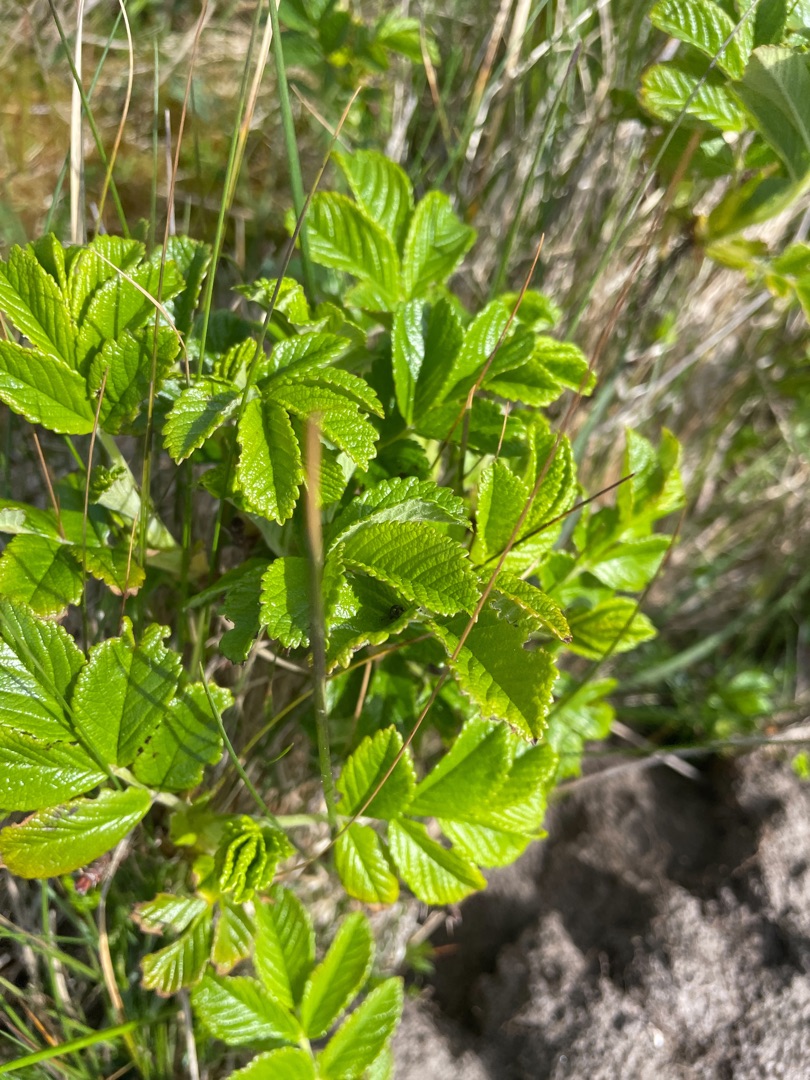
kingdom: Plantae
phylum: Tracheophyta
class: Magnoliopsida
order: Rosales
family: Rosaceae
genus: Rosa
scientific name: Rosa rugosa
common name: Rynket rose
